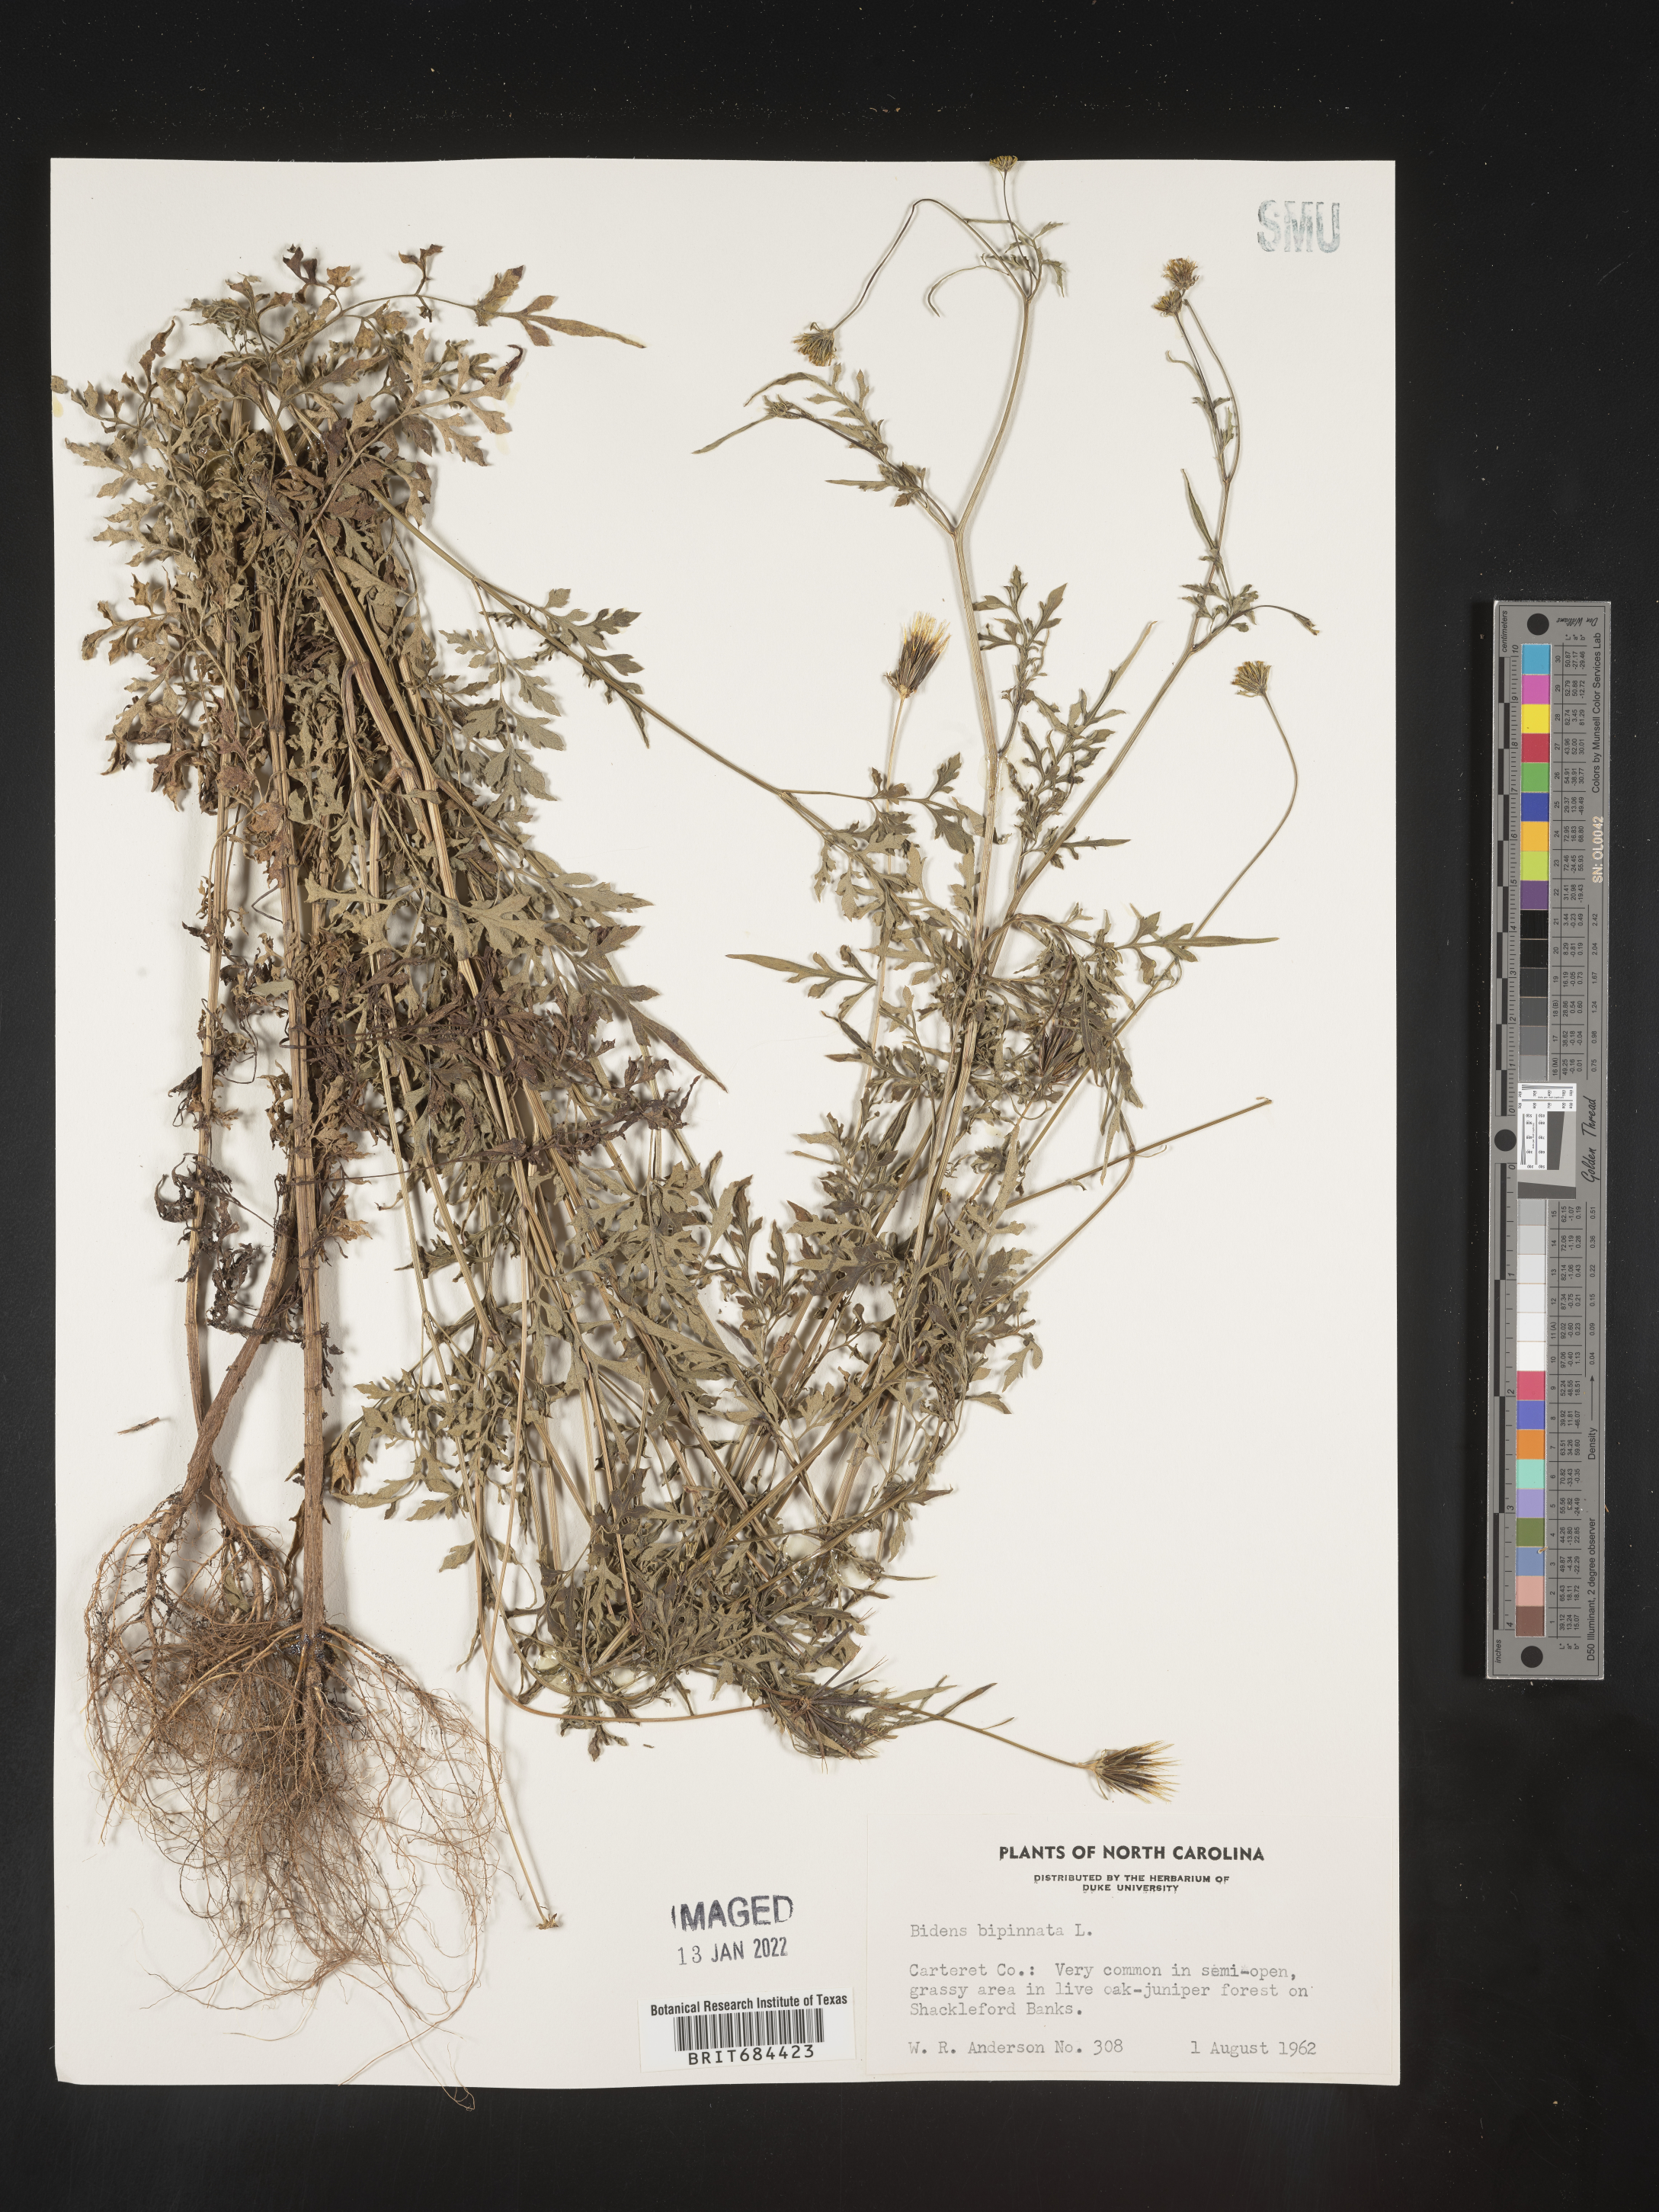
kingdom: Plantae
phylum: Tracheophyta
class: Magnoliopsida
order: Asterales
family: Asteraceae
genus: Bidens
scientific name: Bidens bipinnata
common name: Spanish-needles
